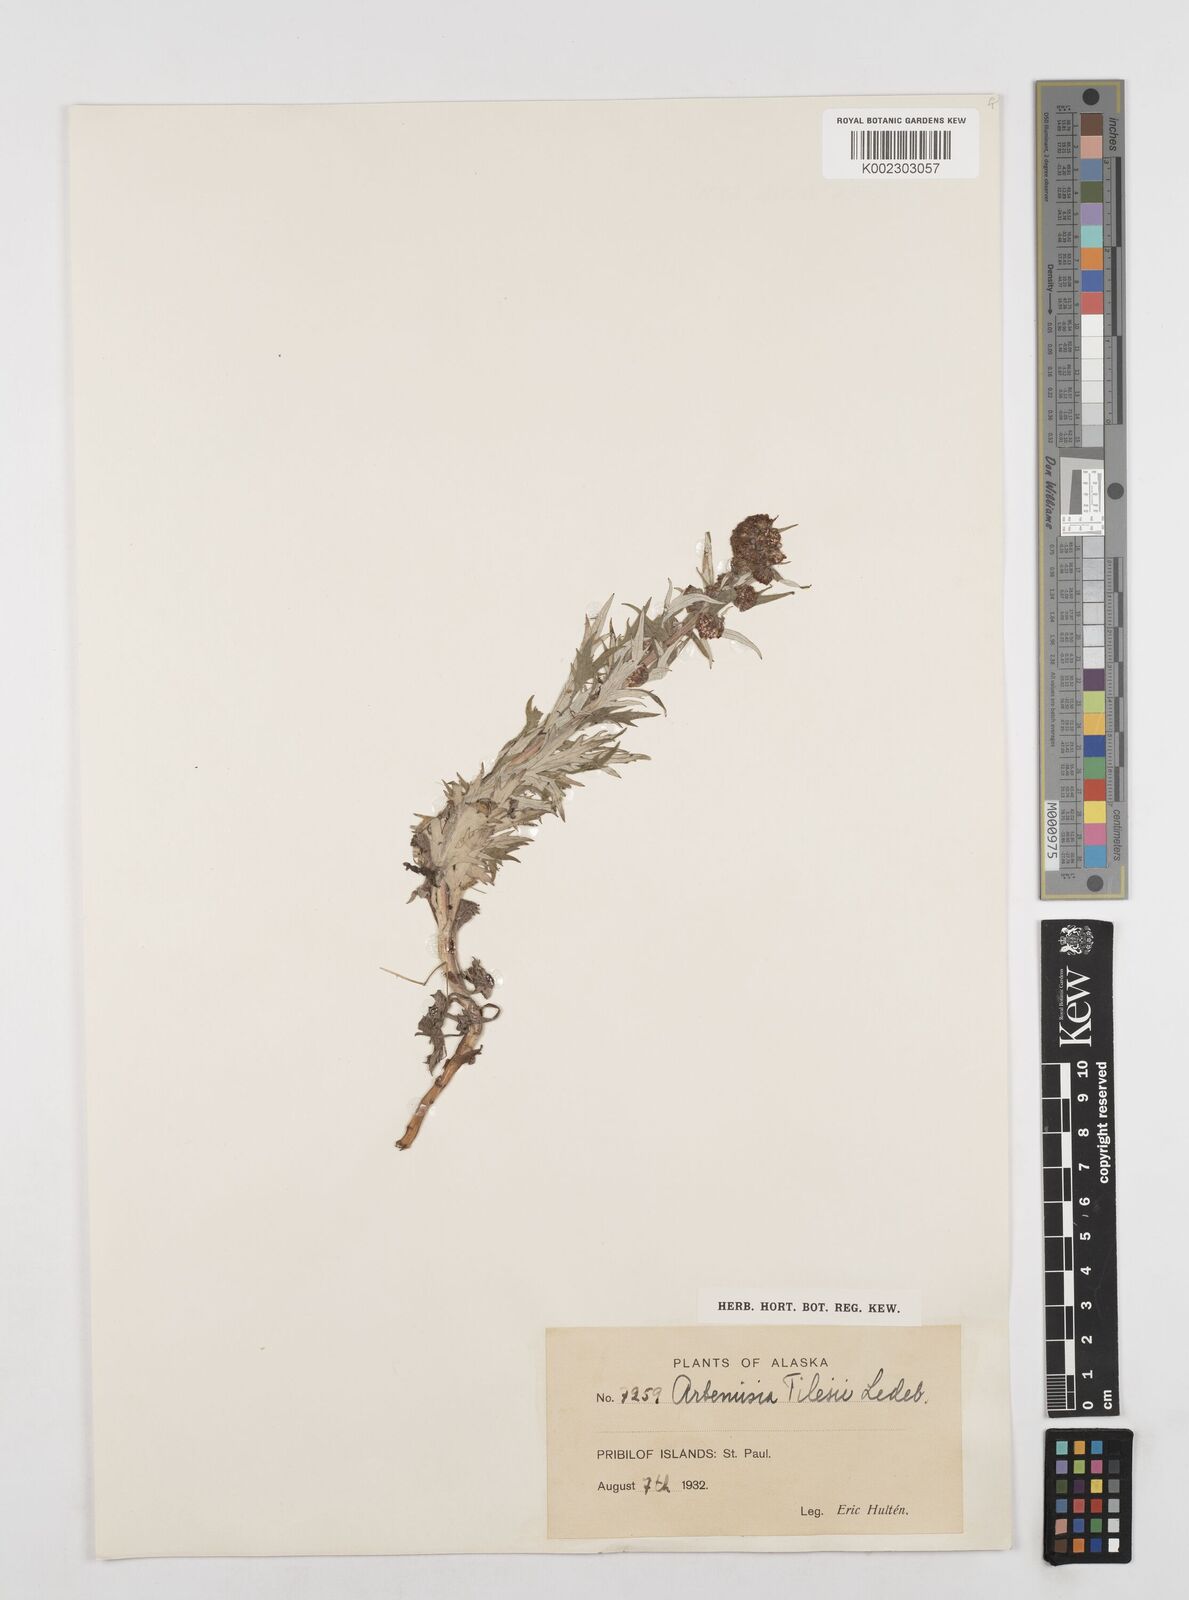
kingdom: Plantae
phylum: Tracheophyta
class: Magnoliopsida
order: Asterales
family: Asteraceae
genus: Artemisia
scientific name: Artemisia tilesii
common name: Aleutian mugwort
